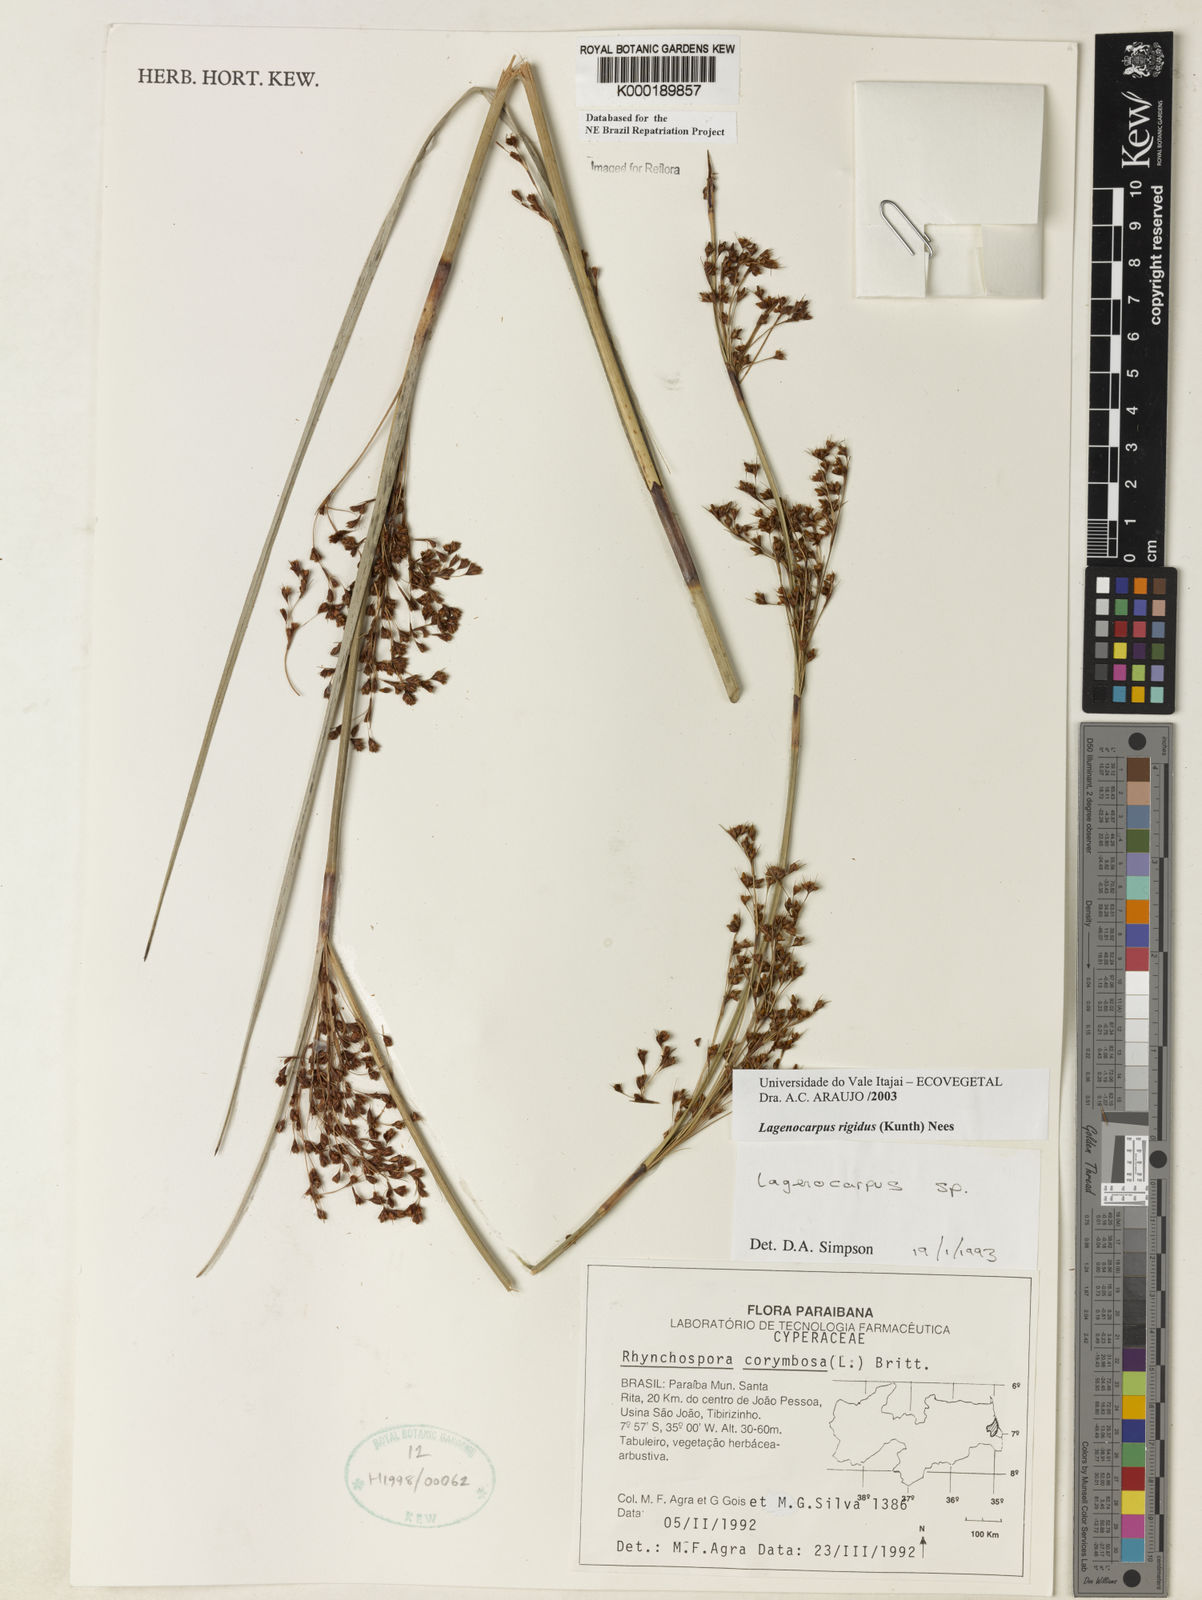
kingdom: Plantae
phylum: Tracheophyta
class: Liliopsida
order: Poales
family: Cyperaceae
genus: Lagenocarpus
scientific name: Lagenocarpus rigidus
